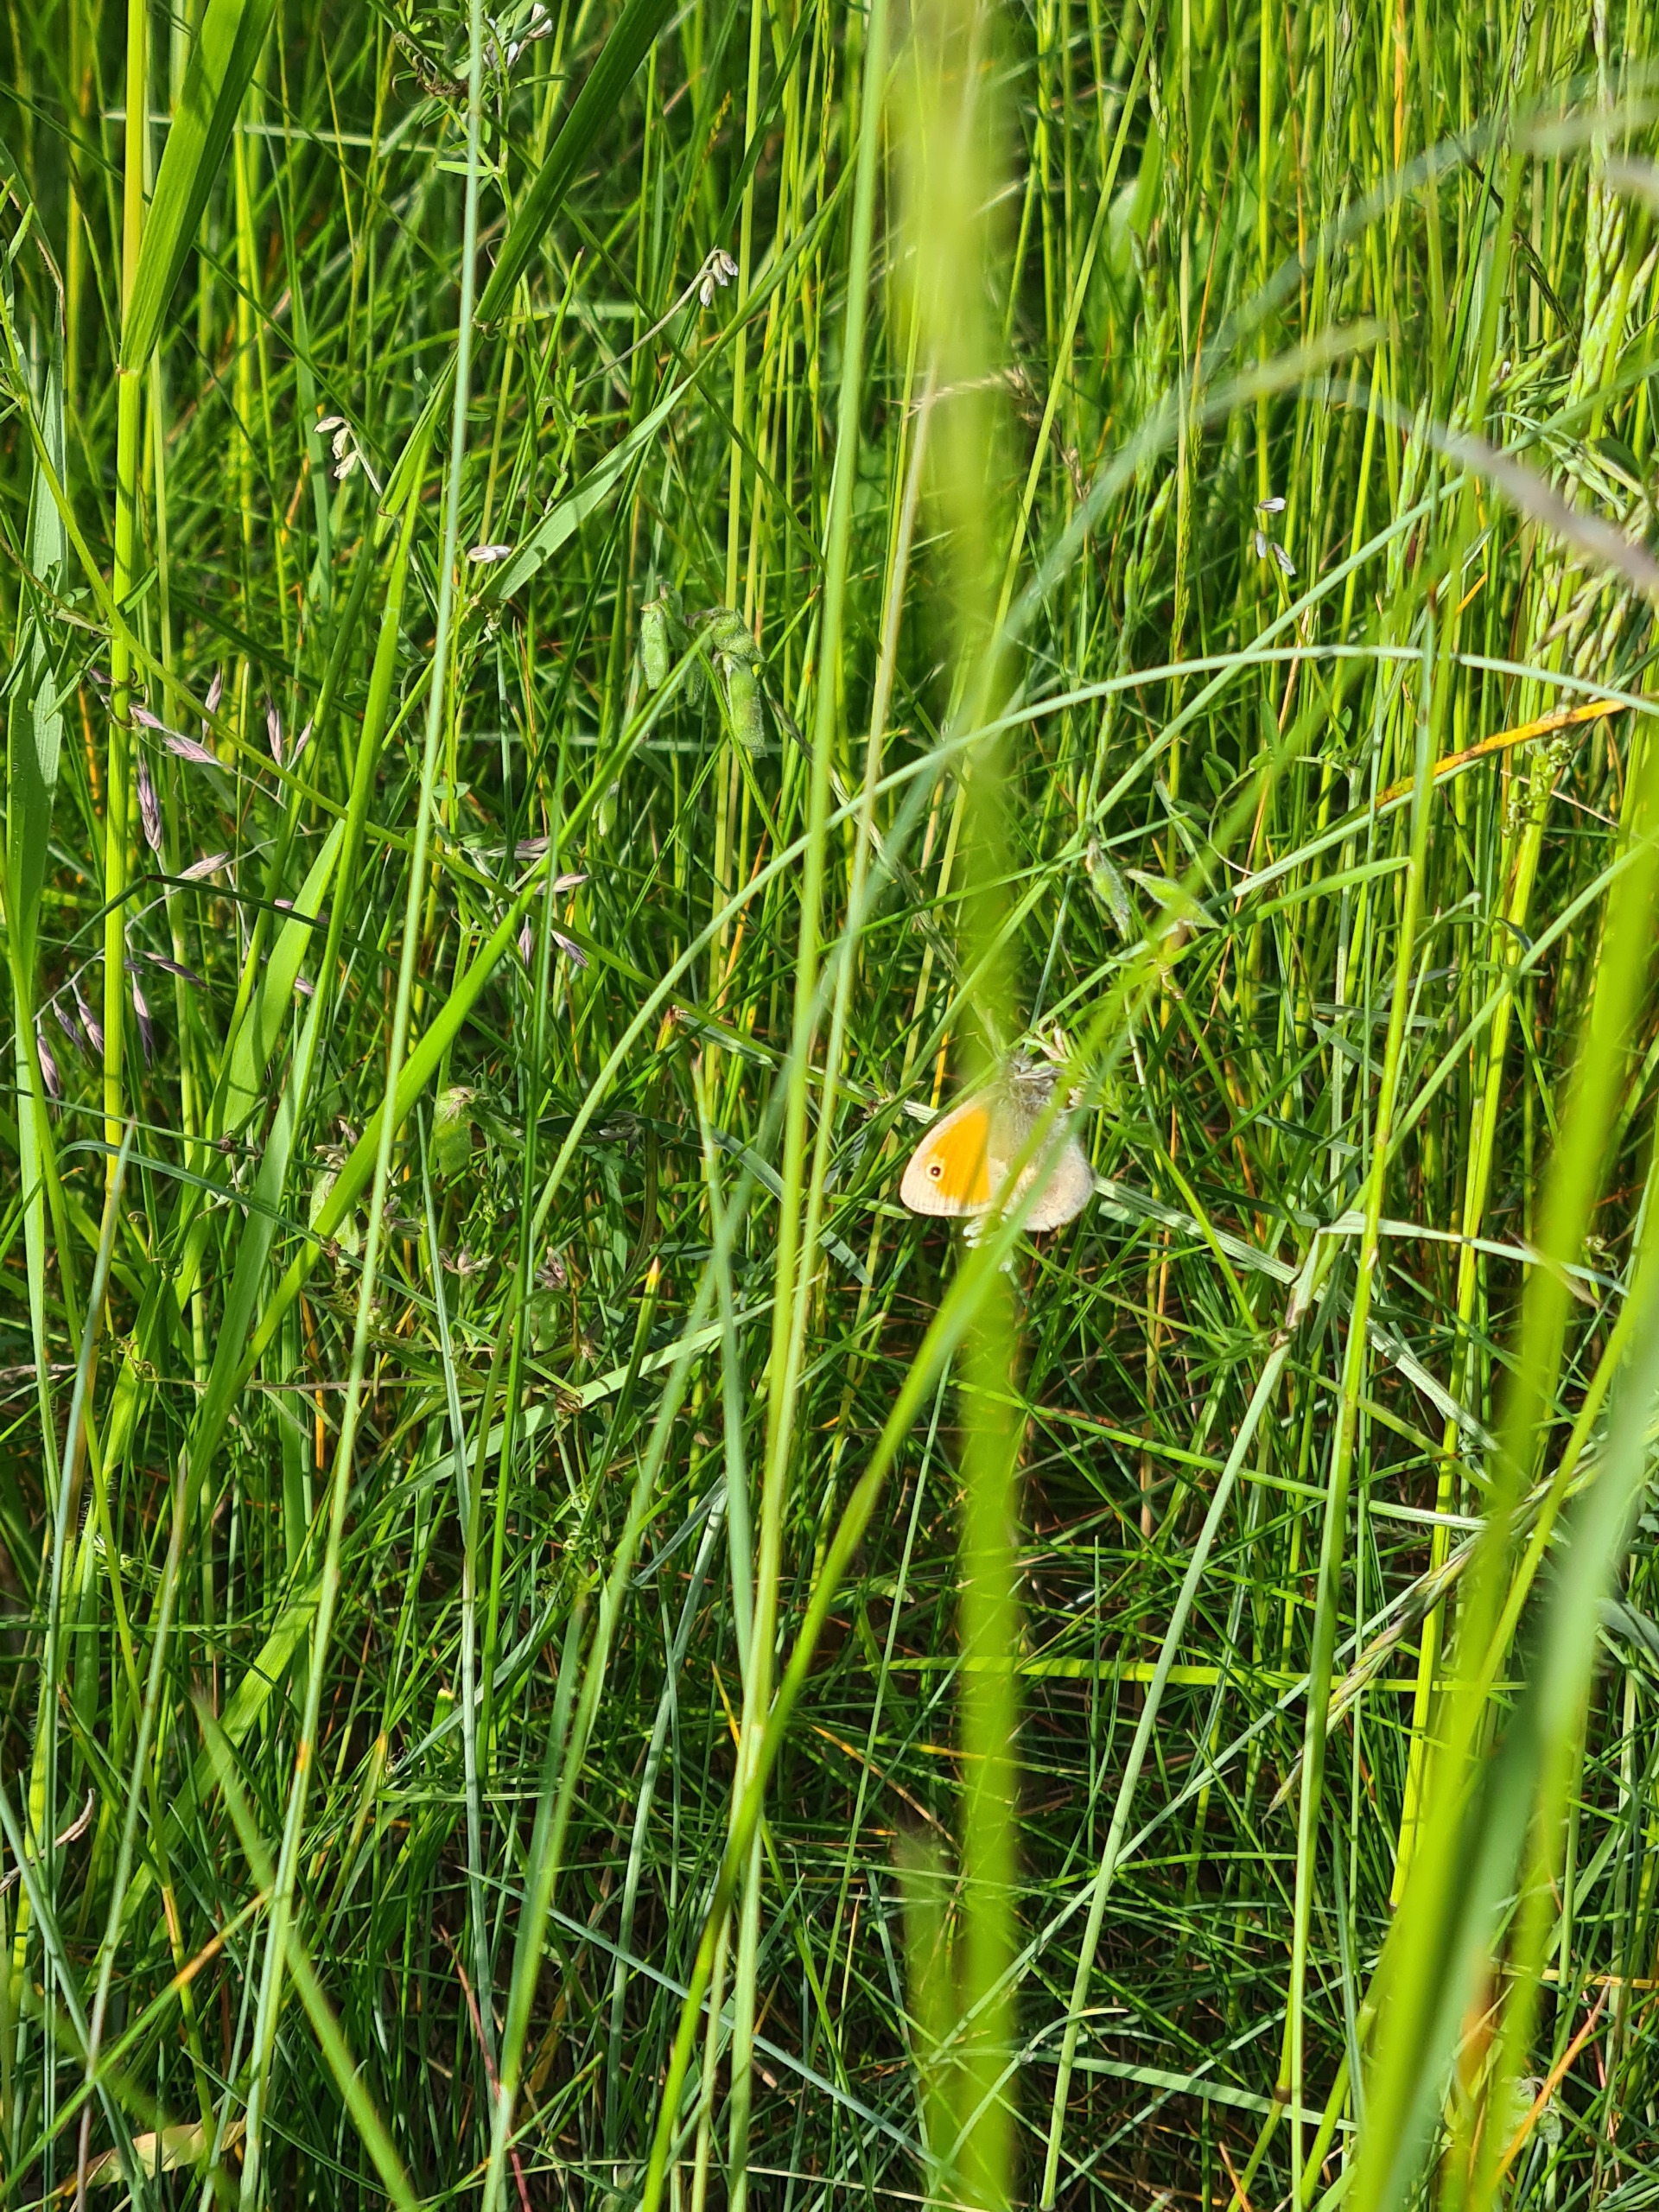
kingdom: Animalia
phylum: Arthropoda
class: Insecta
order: Lepidoptera
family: Nymphalidae
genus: Coenonympha
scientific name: Coenonympha pamphilus
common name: Okkergul randøje
